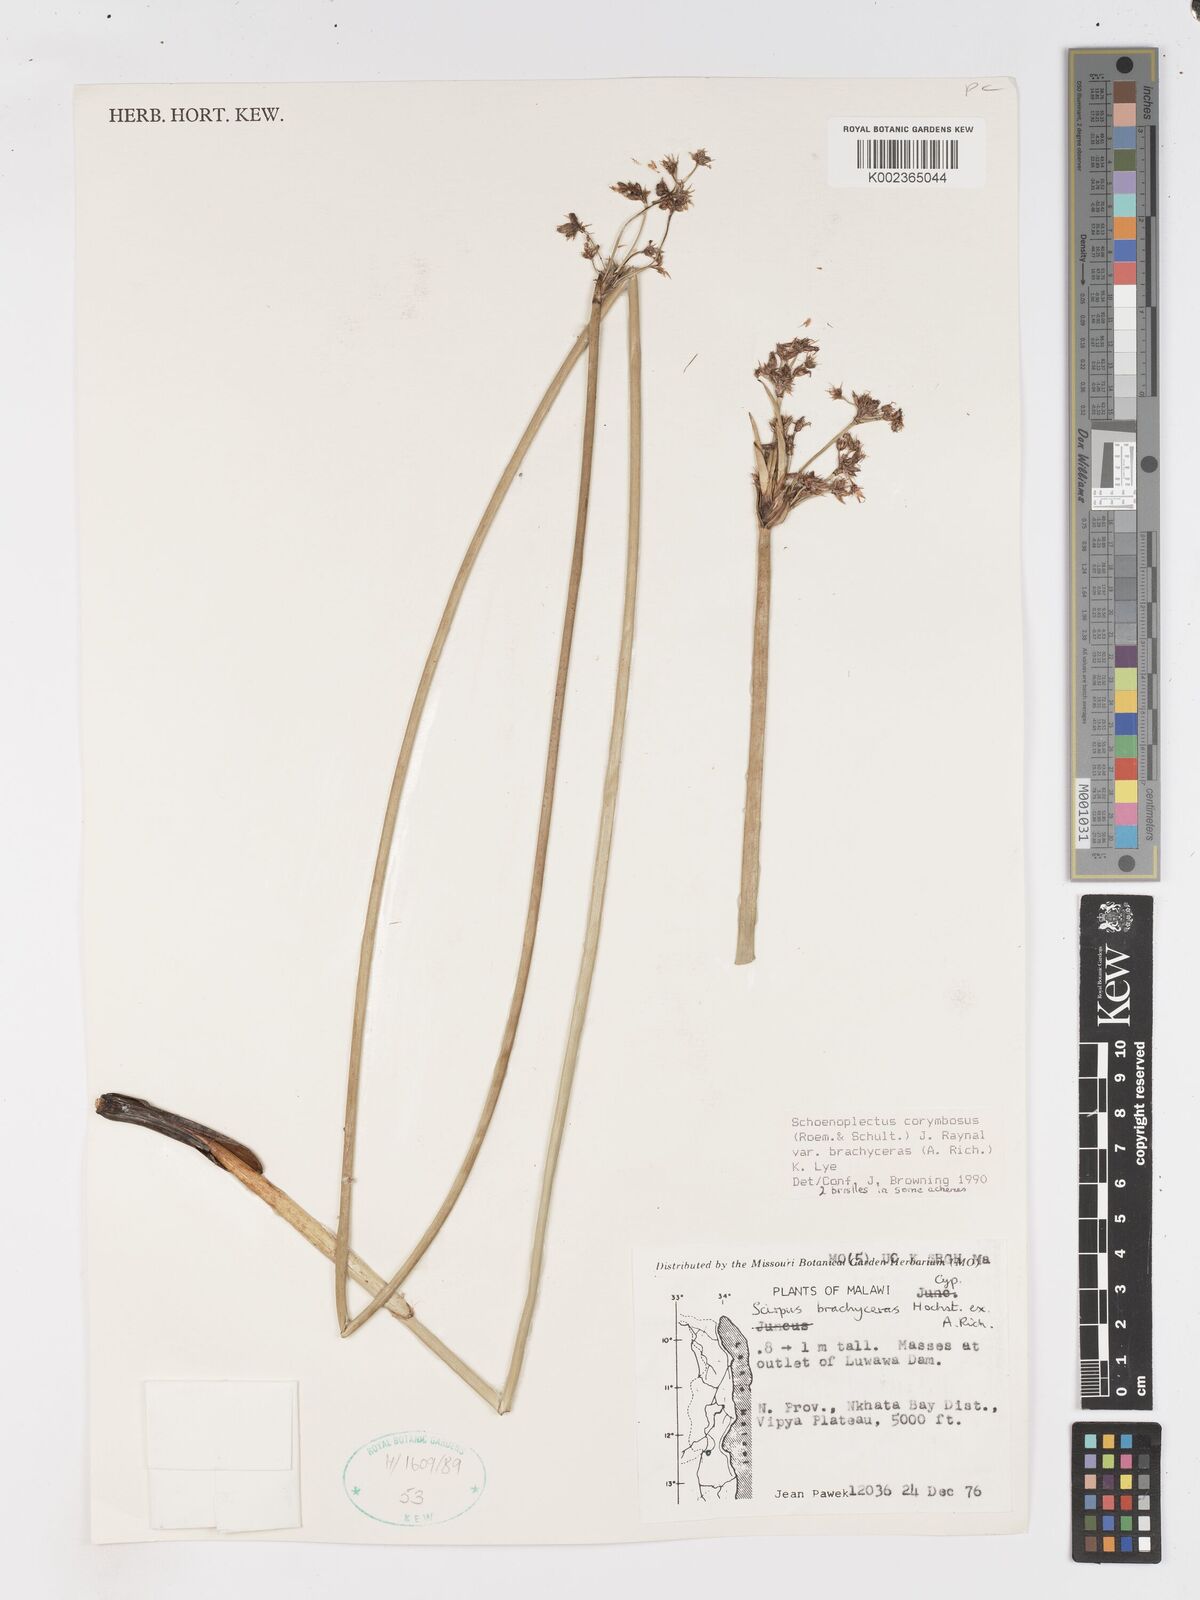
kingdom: Plantae
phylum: Tracheophyta
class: Liliopsida
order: Poales
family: Cyperaceae
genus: Schoenoplectiella
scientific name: Schoenoplectiella brachyceras
